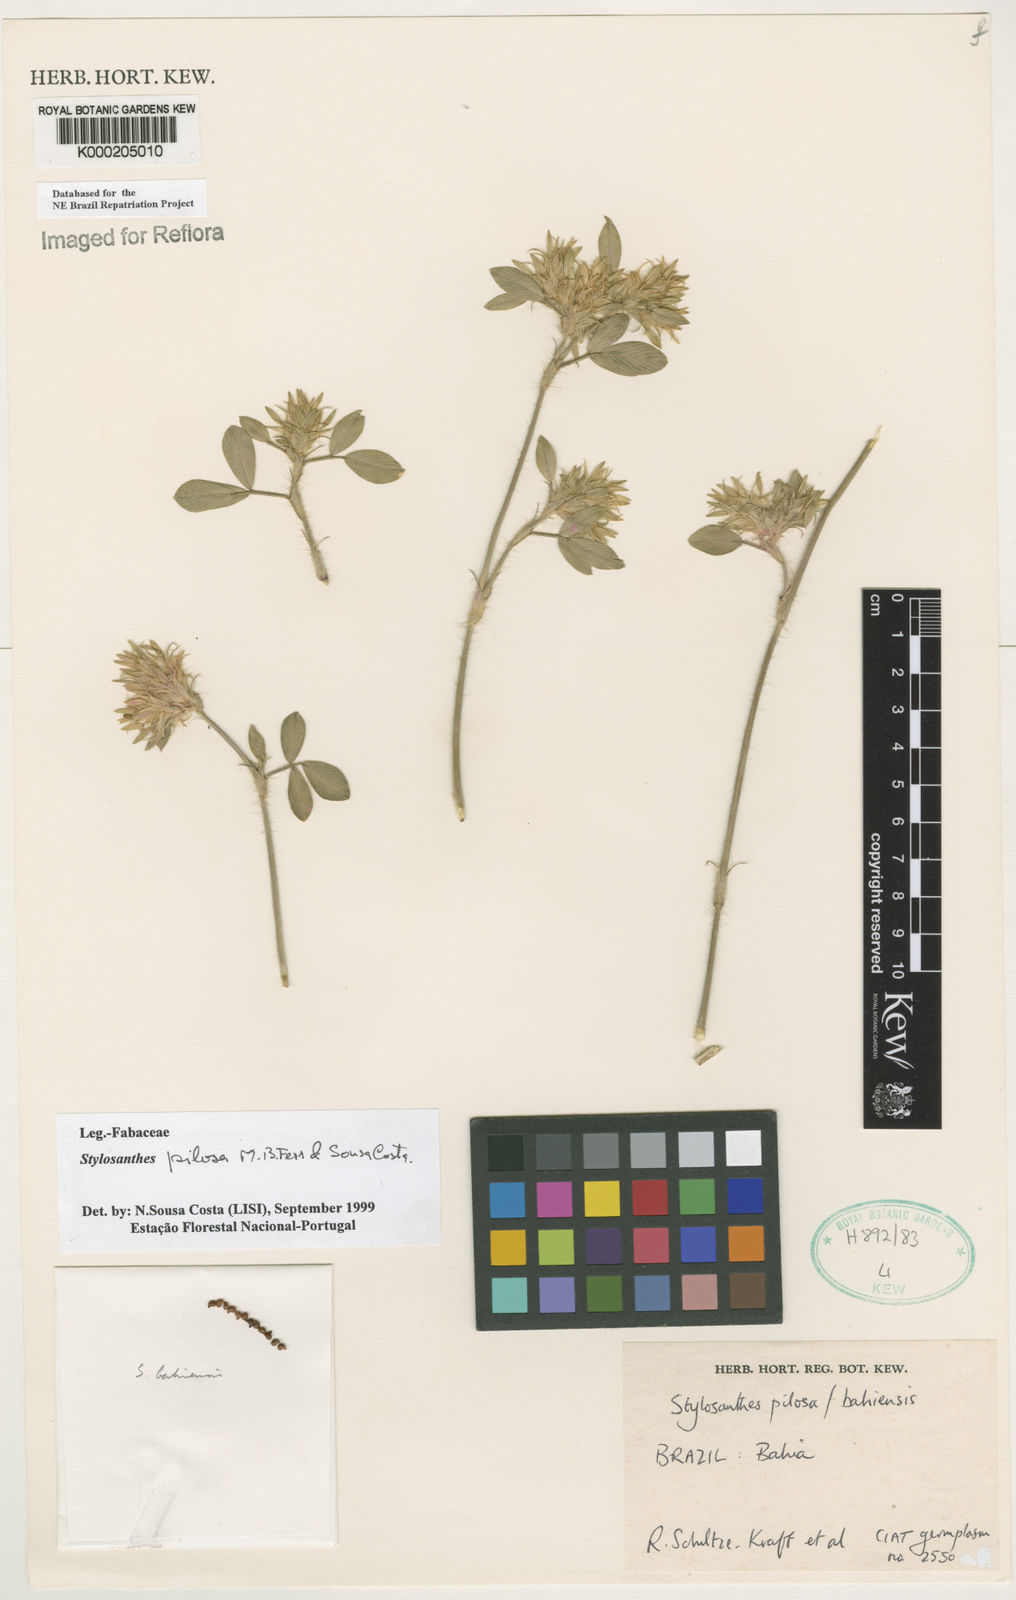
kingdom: Plantae
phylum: Tracheophyta
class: Magnoliopsida
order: Fabales
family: Fabaceae
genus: Stylosanthes
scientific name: Stylosanthes viscosa
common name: Viscid pencil-flower
